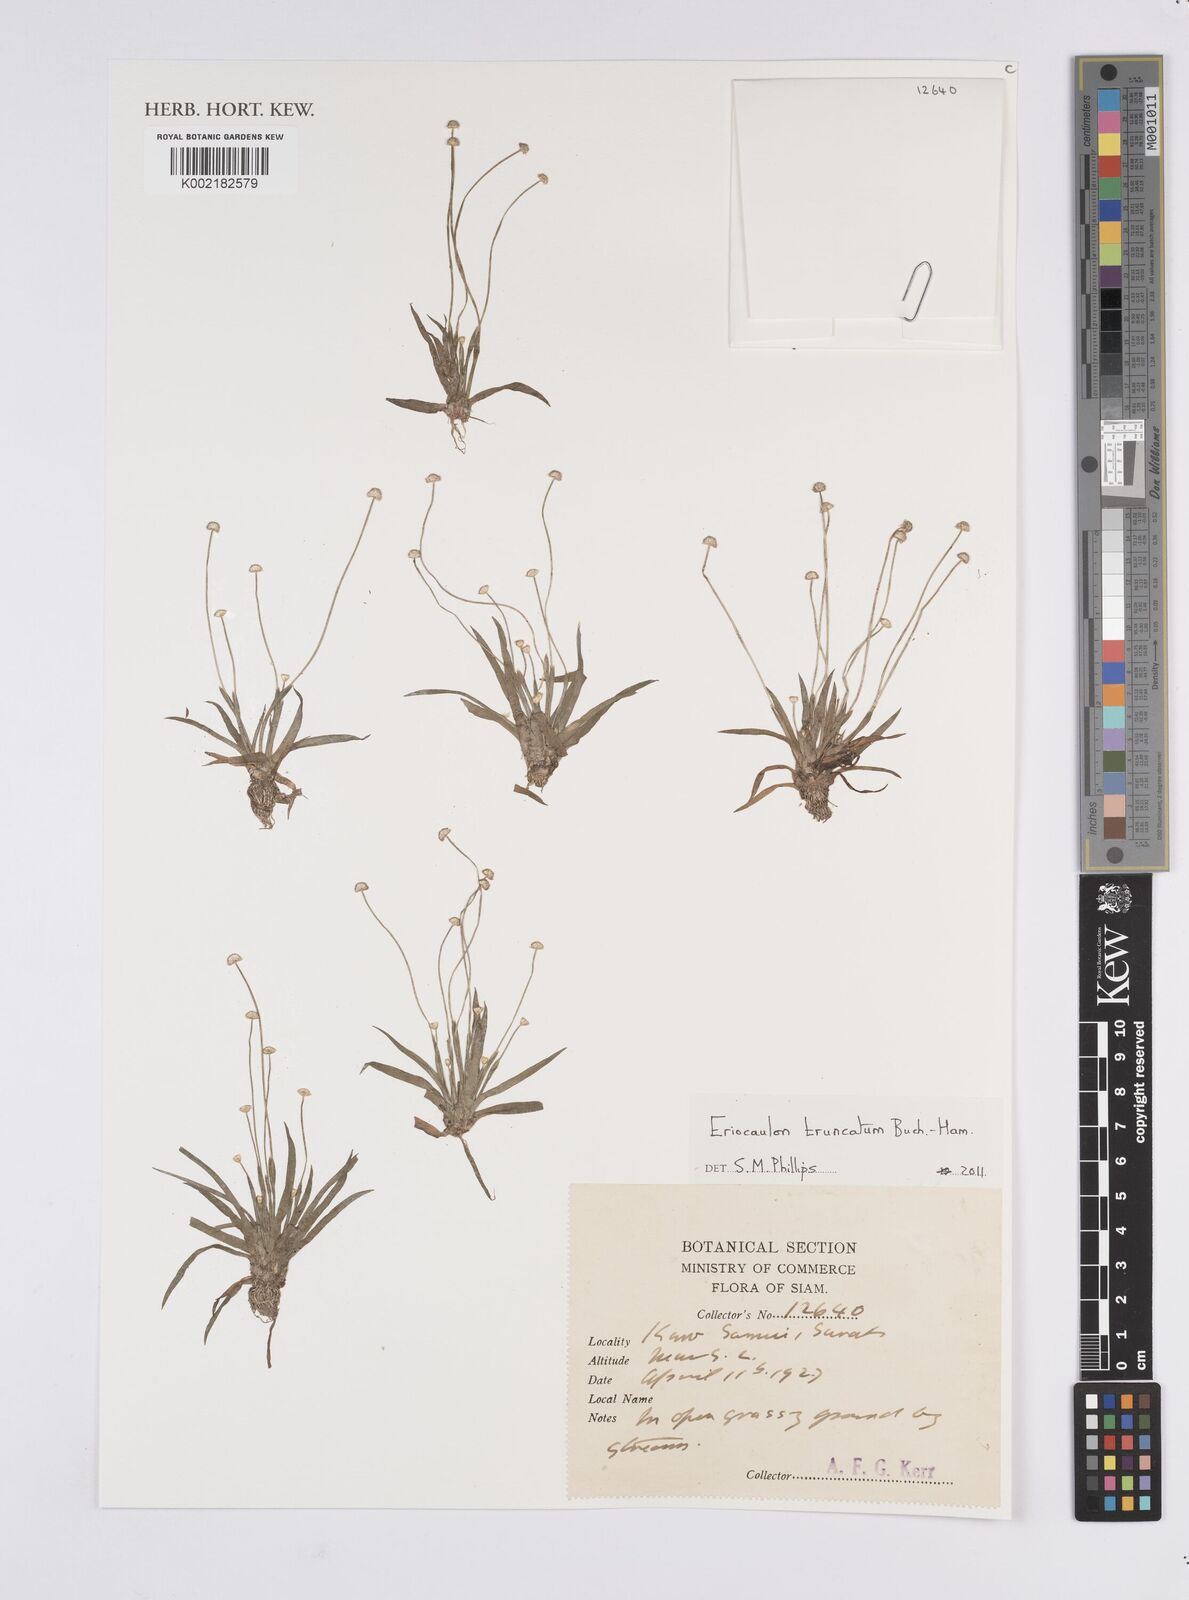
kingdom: Plantae
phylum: Tracheophyta
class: Liliopsida
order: Poales
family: Eriocaulaceae
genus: Eriocaulon
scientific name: Eriocaulon truncatum
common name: Short pipe-wort
